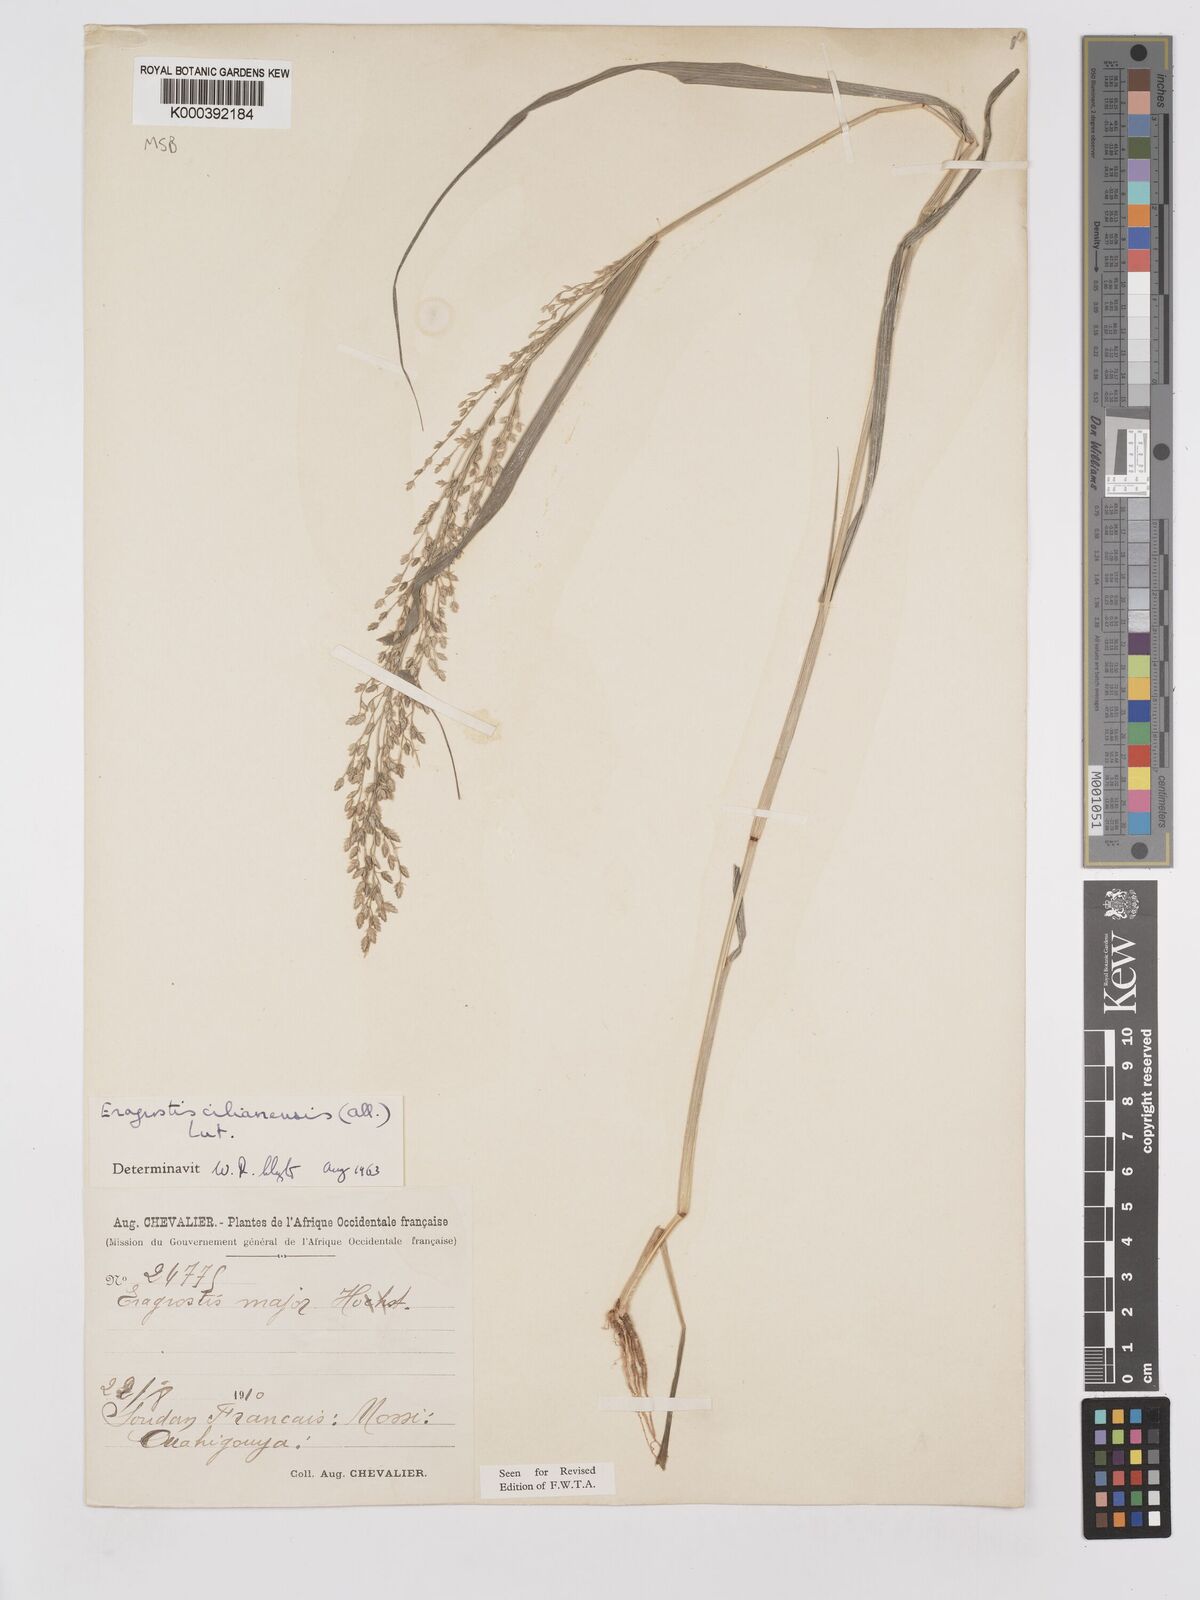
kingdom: Plantae
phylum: Tracheophyta
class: Liliopsida
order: Poales
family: Poaceae
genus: Eragrostis
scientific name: Eragrostis cilianensis
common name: Stinkgrass
